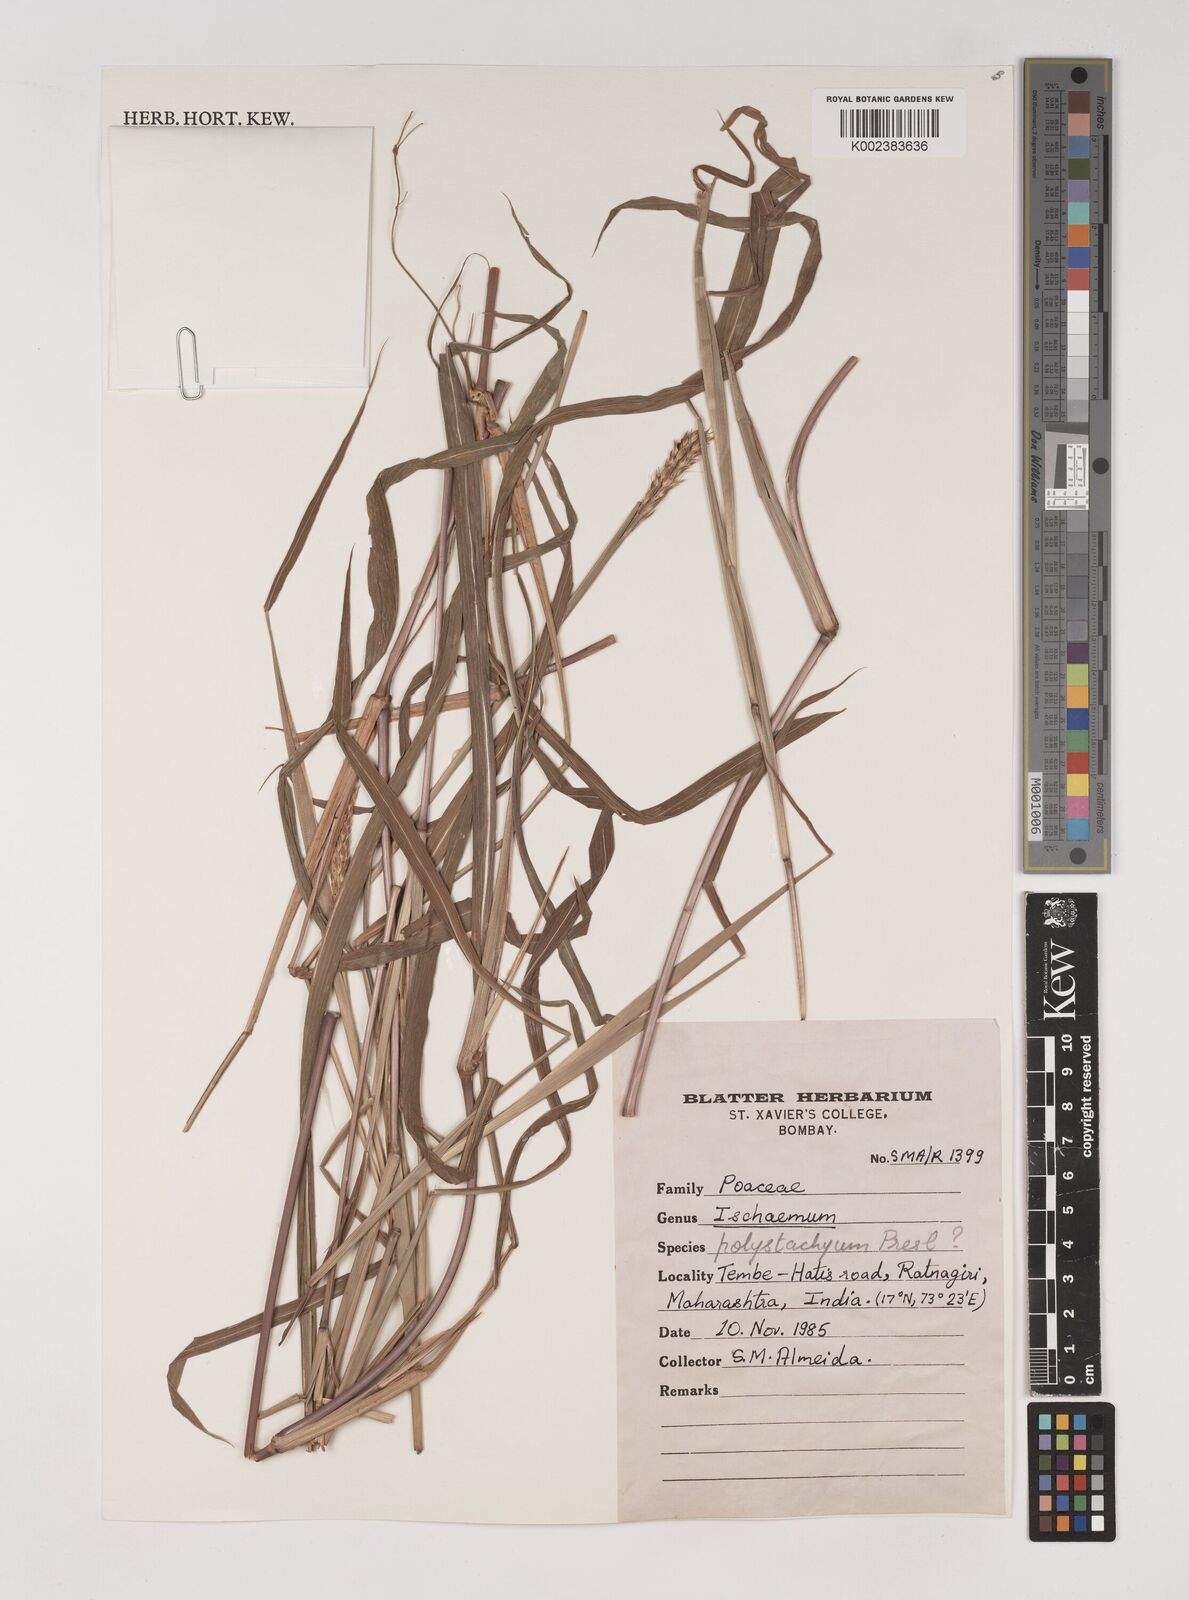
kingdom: Plantae
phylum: Tracheophyta
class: Liliopsida
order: Poales
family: Poaceae
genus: Ischaemum
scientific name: Ischaemum
